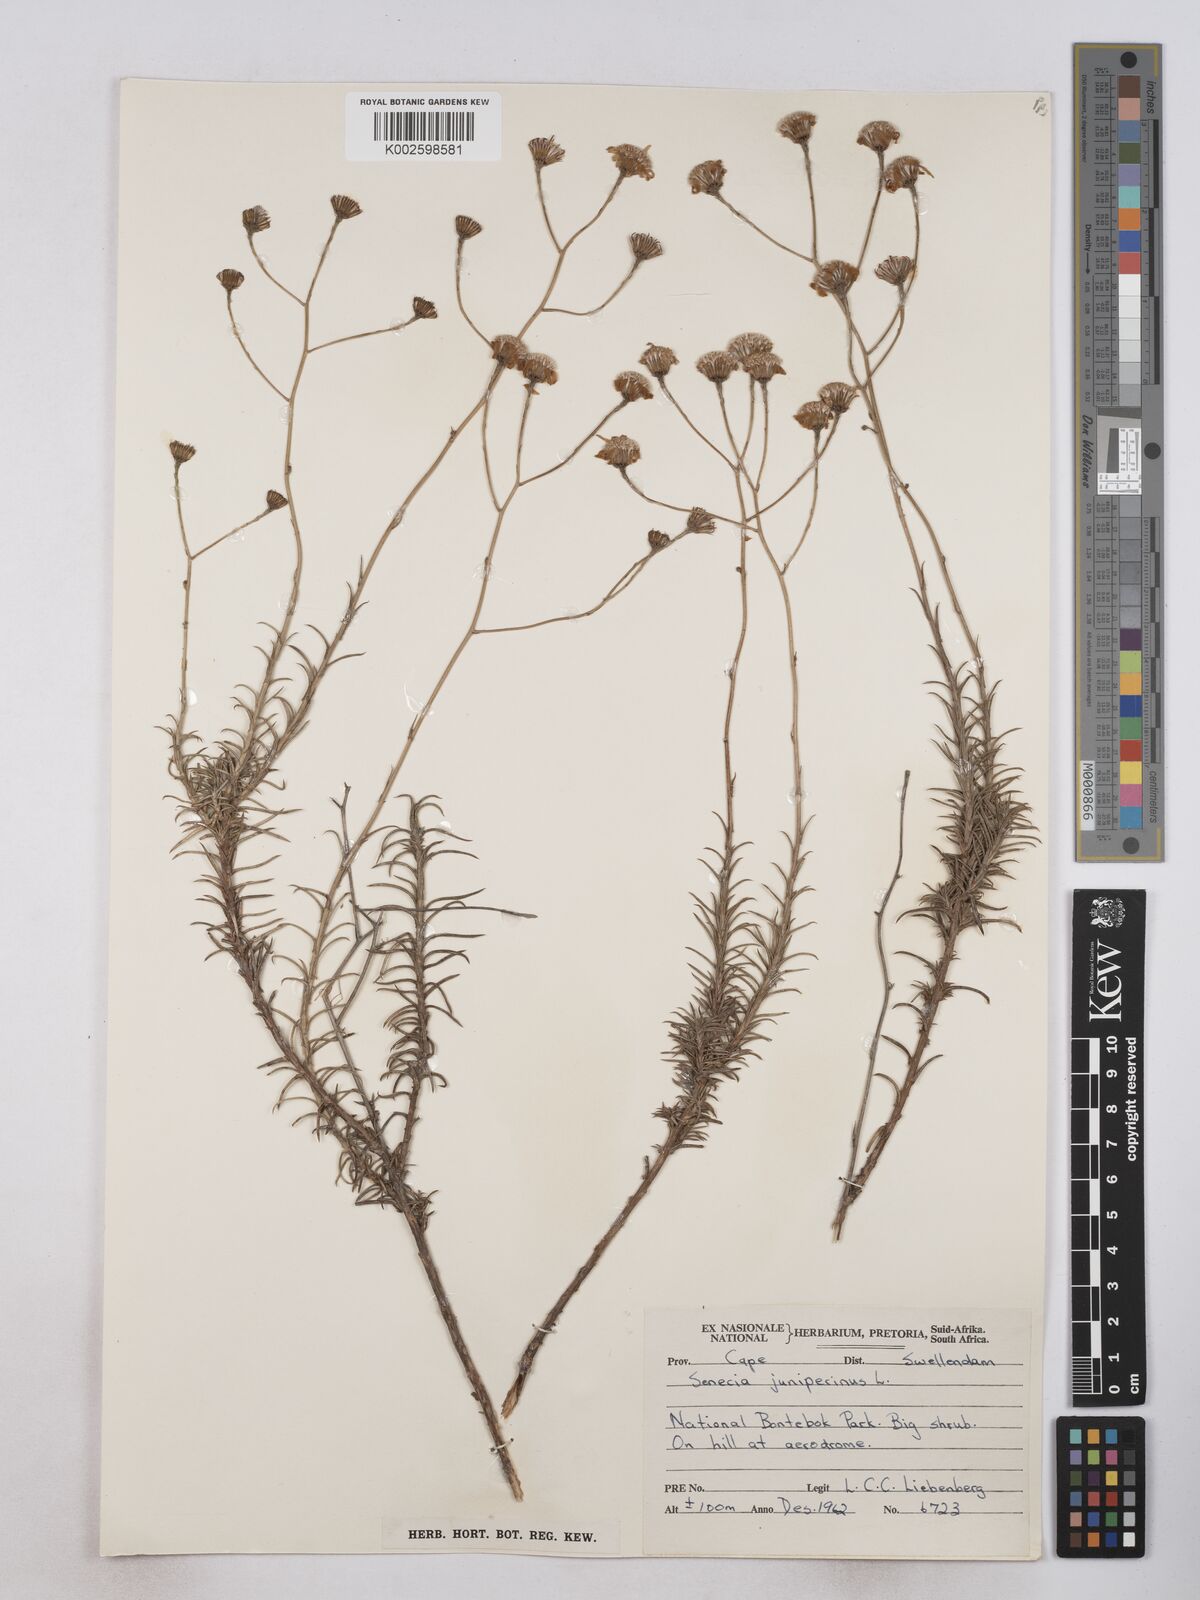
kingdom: Plantae
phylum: Tracheophyta
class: Magnoliopsida
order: Asterales
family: Asteraceae
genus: Senecio
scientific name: Senecio juniperinus
